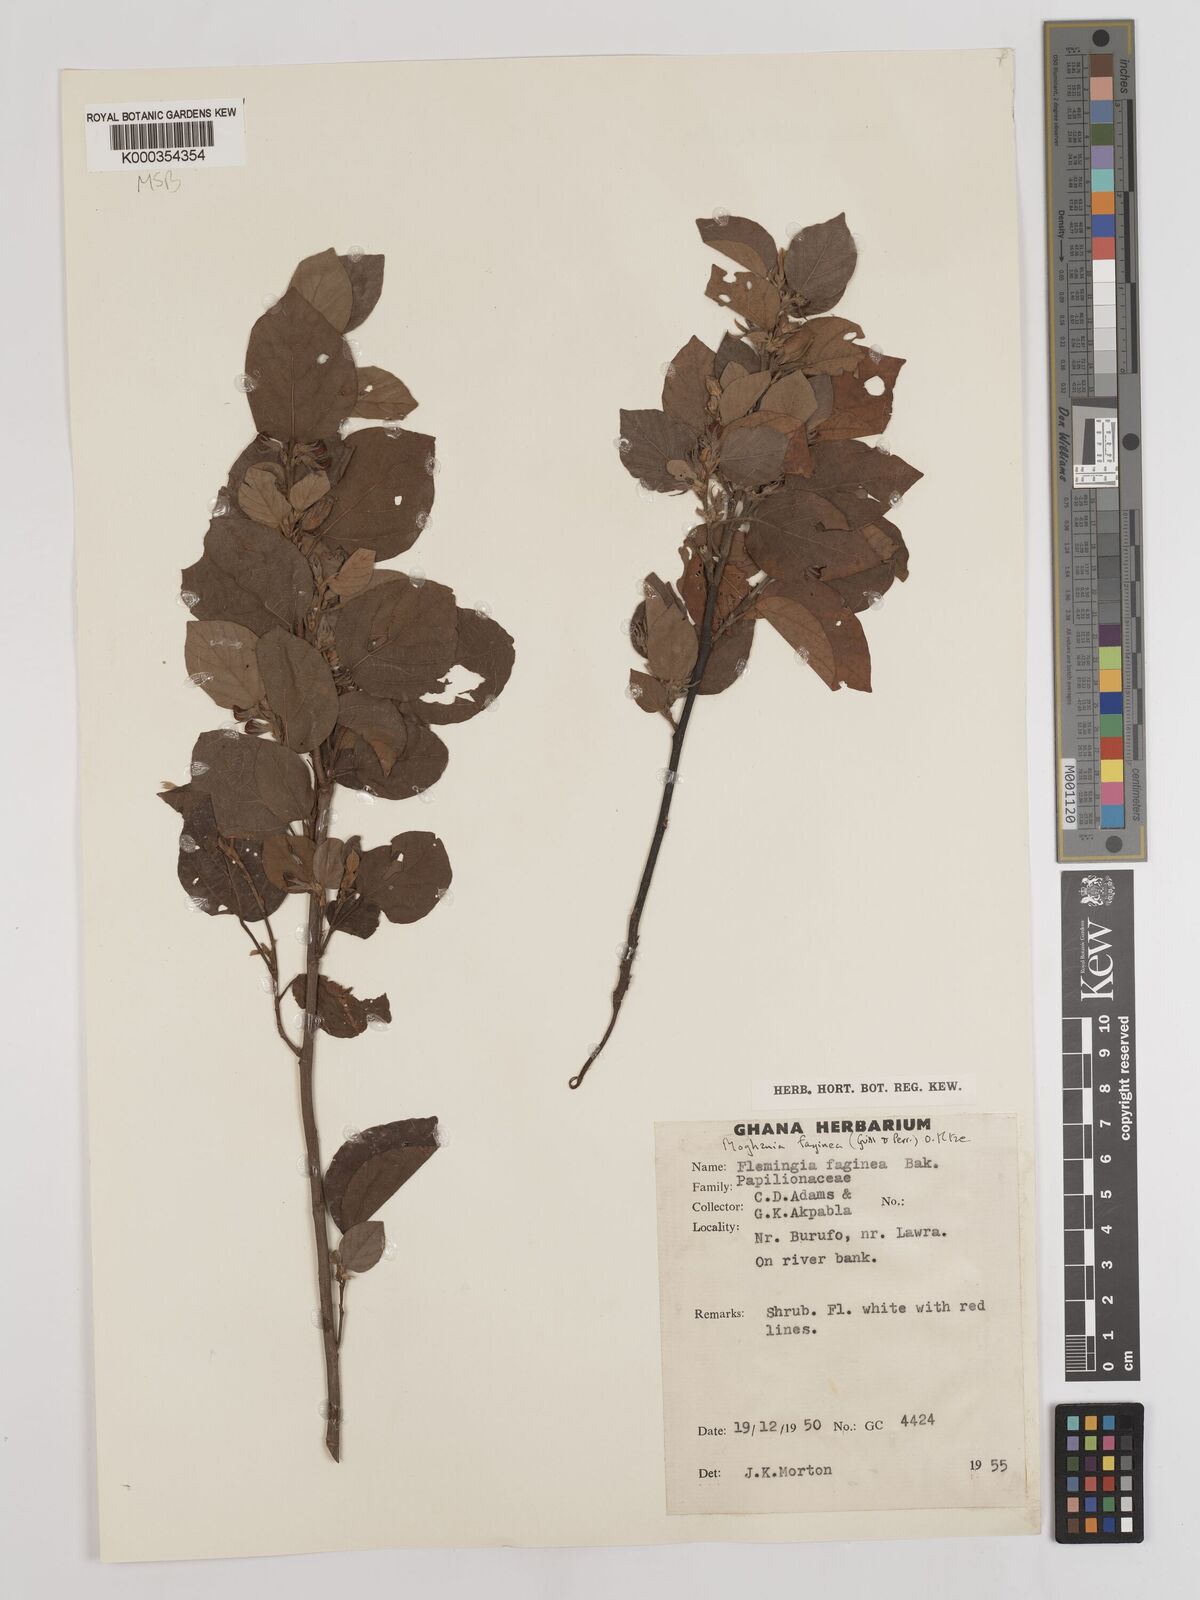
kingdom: Plantae
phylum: Tracheophyta
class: Magnoliopsida
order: Fabales
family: Fabaceae
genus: Flemingia
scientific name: Flemingia faginea
